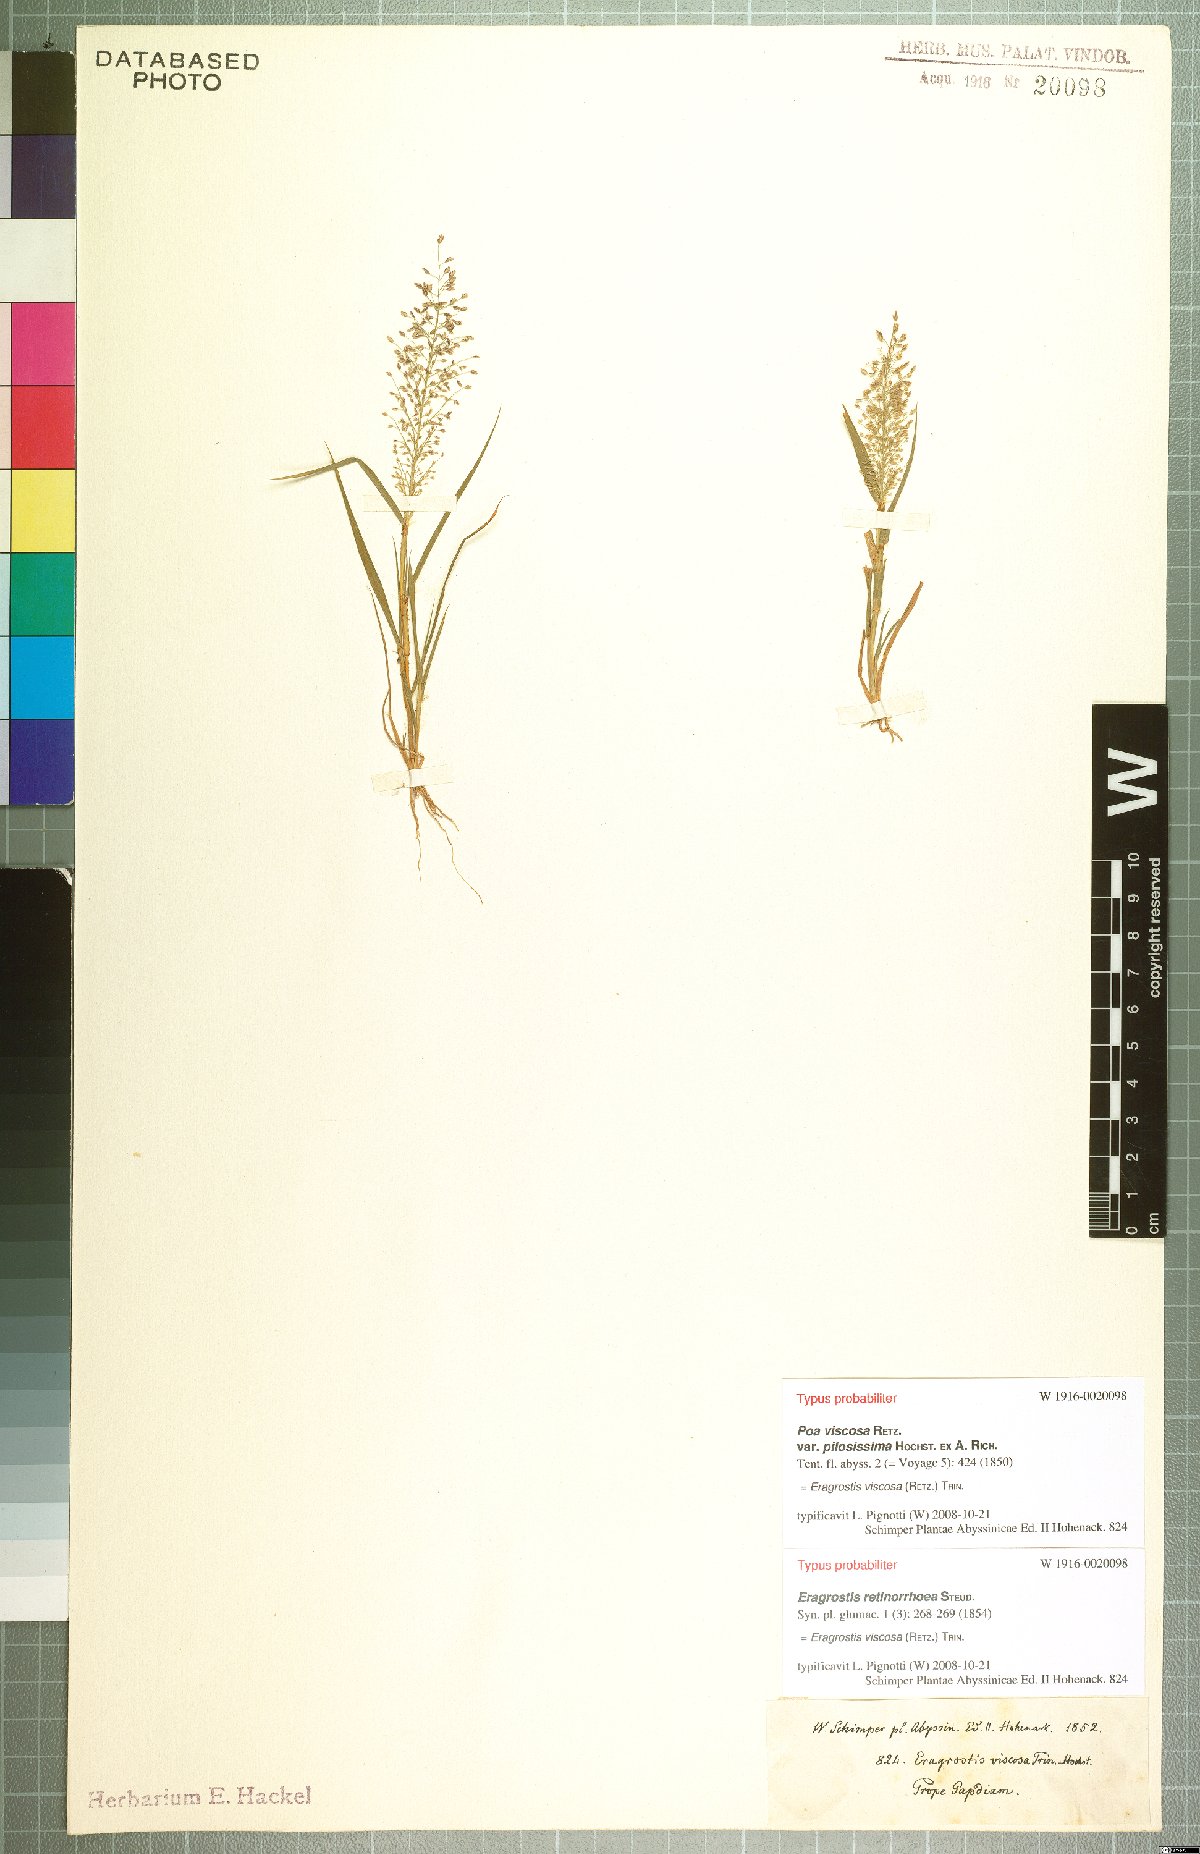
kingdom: Plantae
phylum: Tracheophyta
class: Liliopsida
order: Poales
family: Poaceae
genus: Eragrostis
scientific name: Eragrostis viscosa
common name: Sticky love grass
